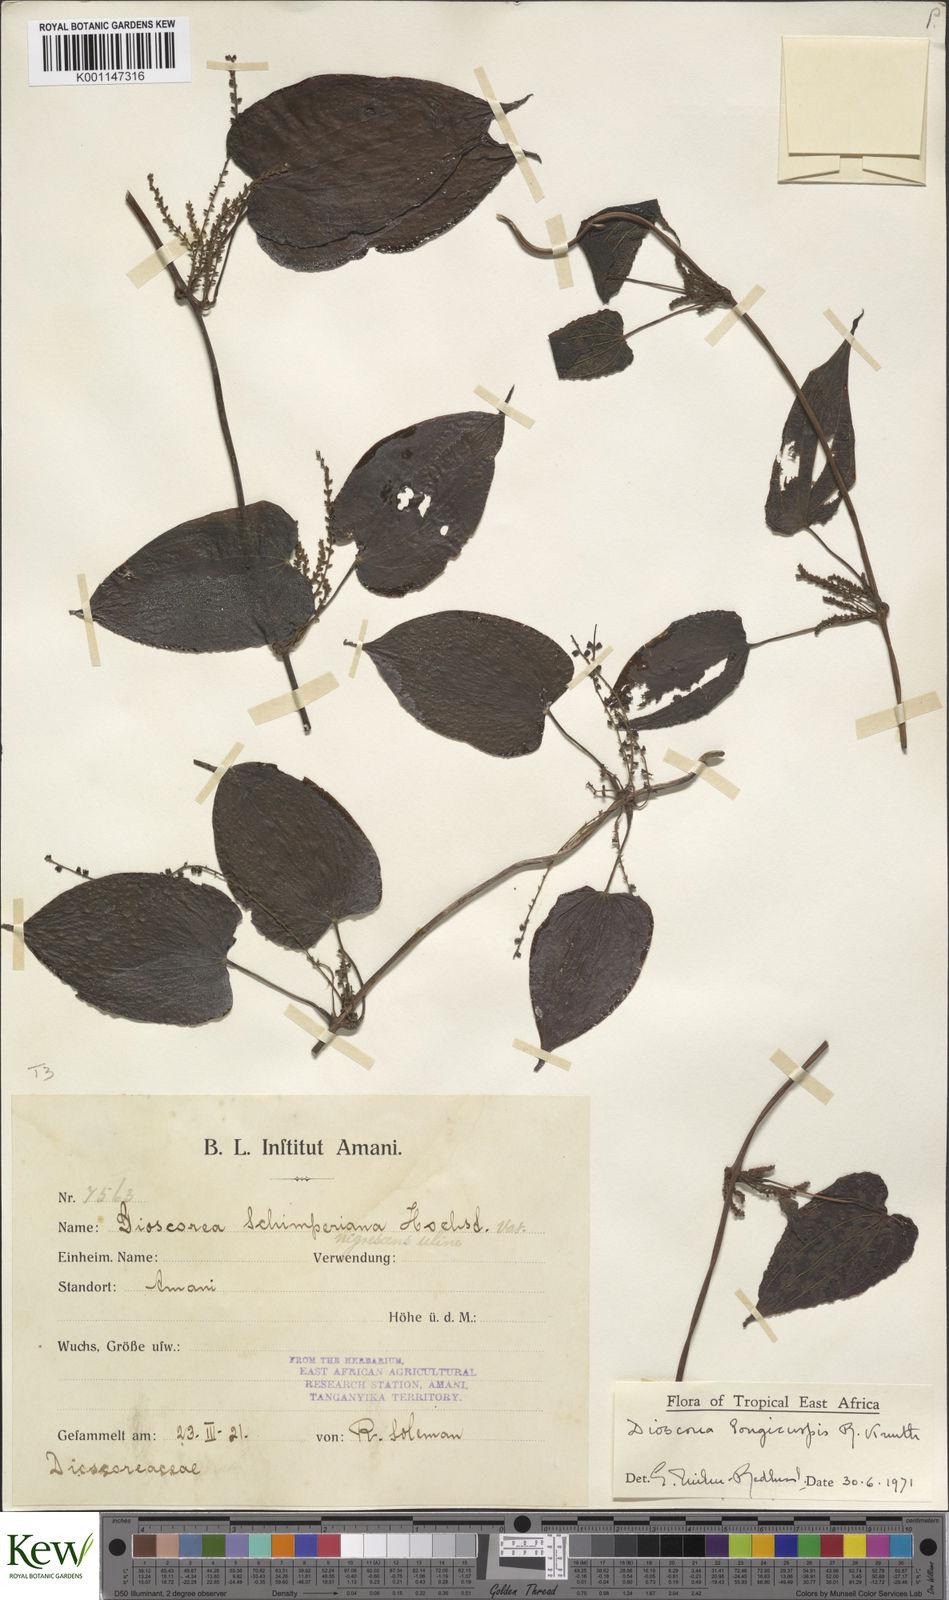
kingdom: Plantae
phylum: Tracheophyta
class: Liliopsida
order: Dioscoreales
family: Dioscoreaceae
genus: Dioscorea
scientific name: Dioscorea longicuspis
